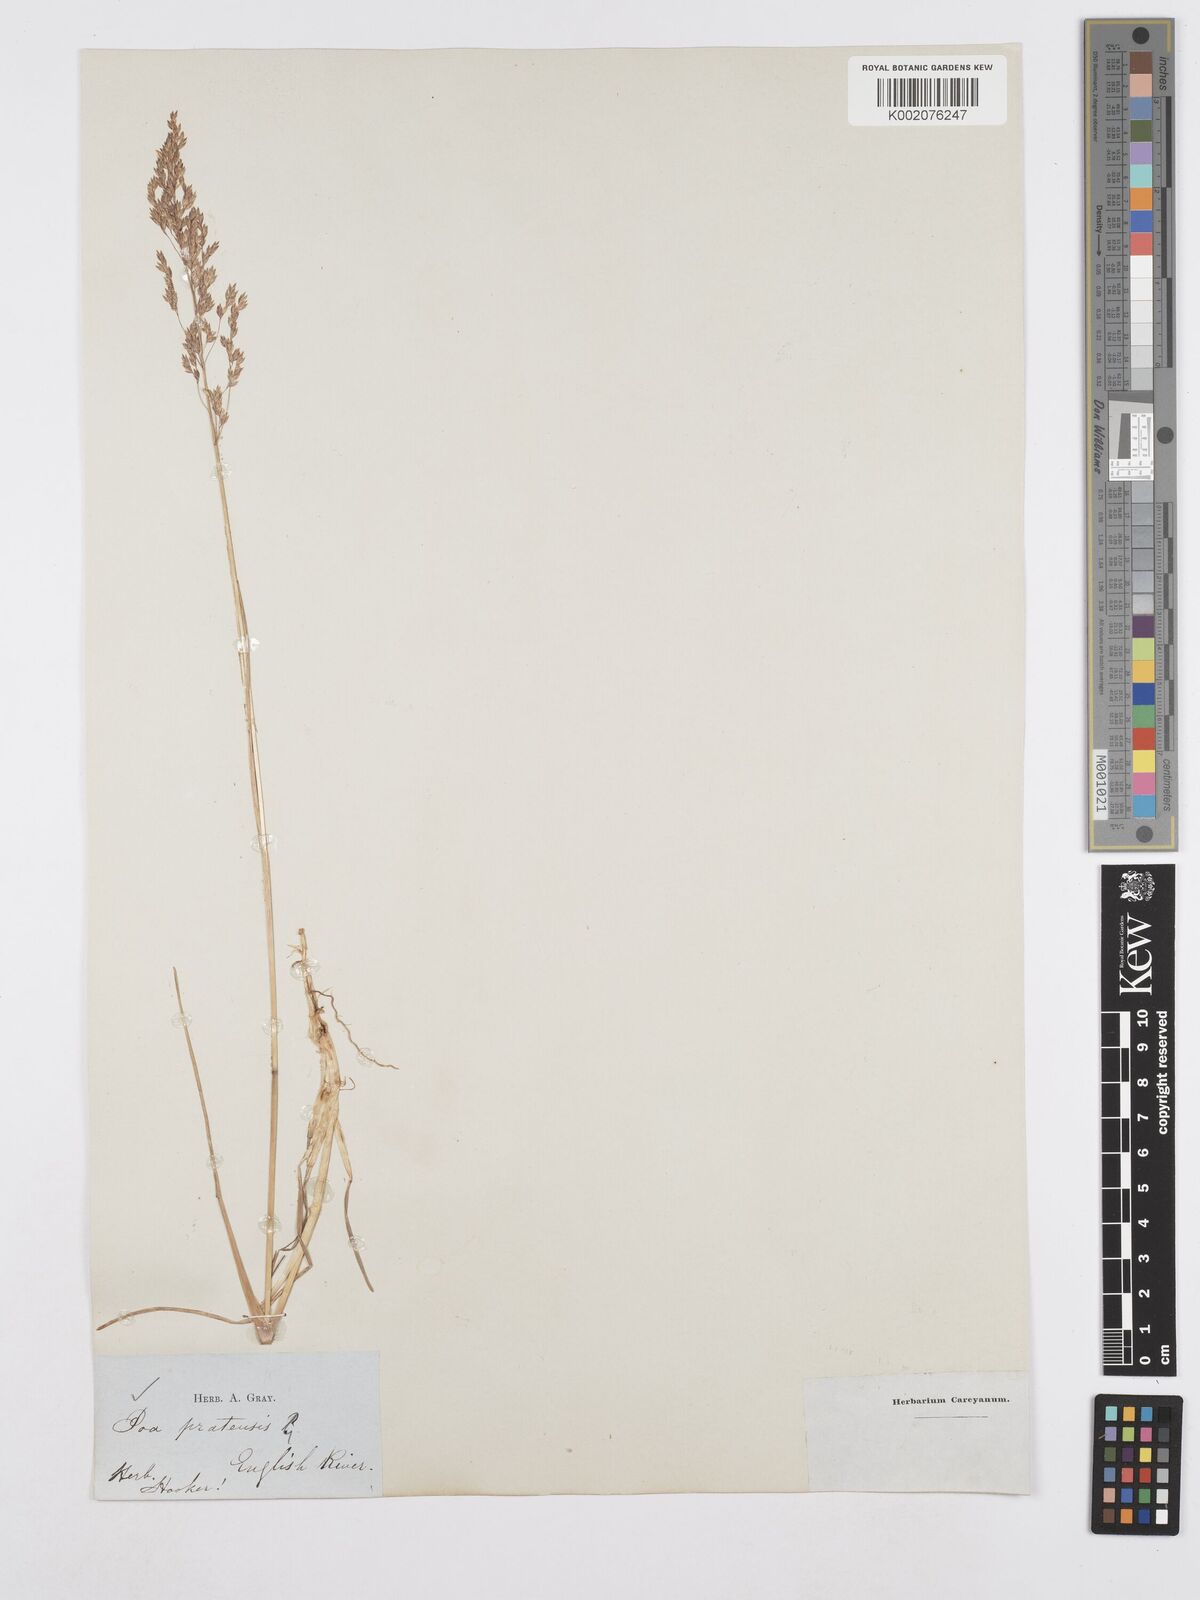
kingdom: Plantae
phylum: Tracheophyta
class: Liliopsida
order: Poales
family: Poaceae
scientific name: Poaceae
